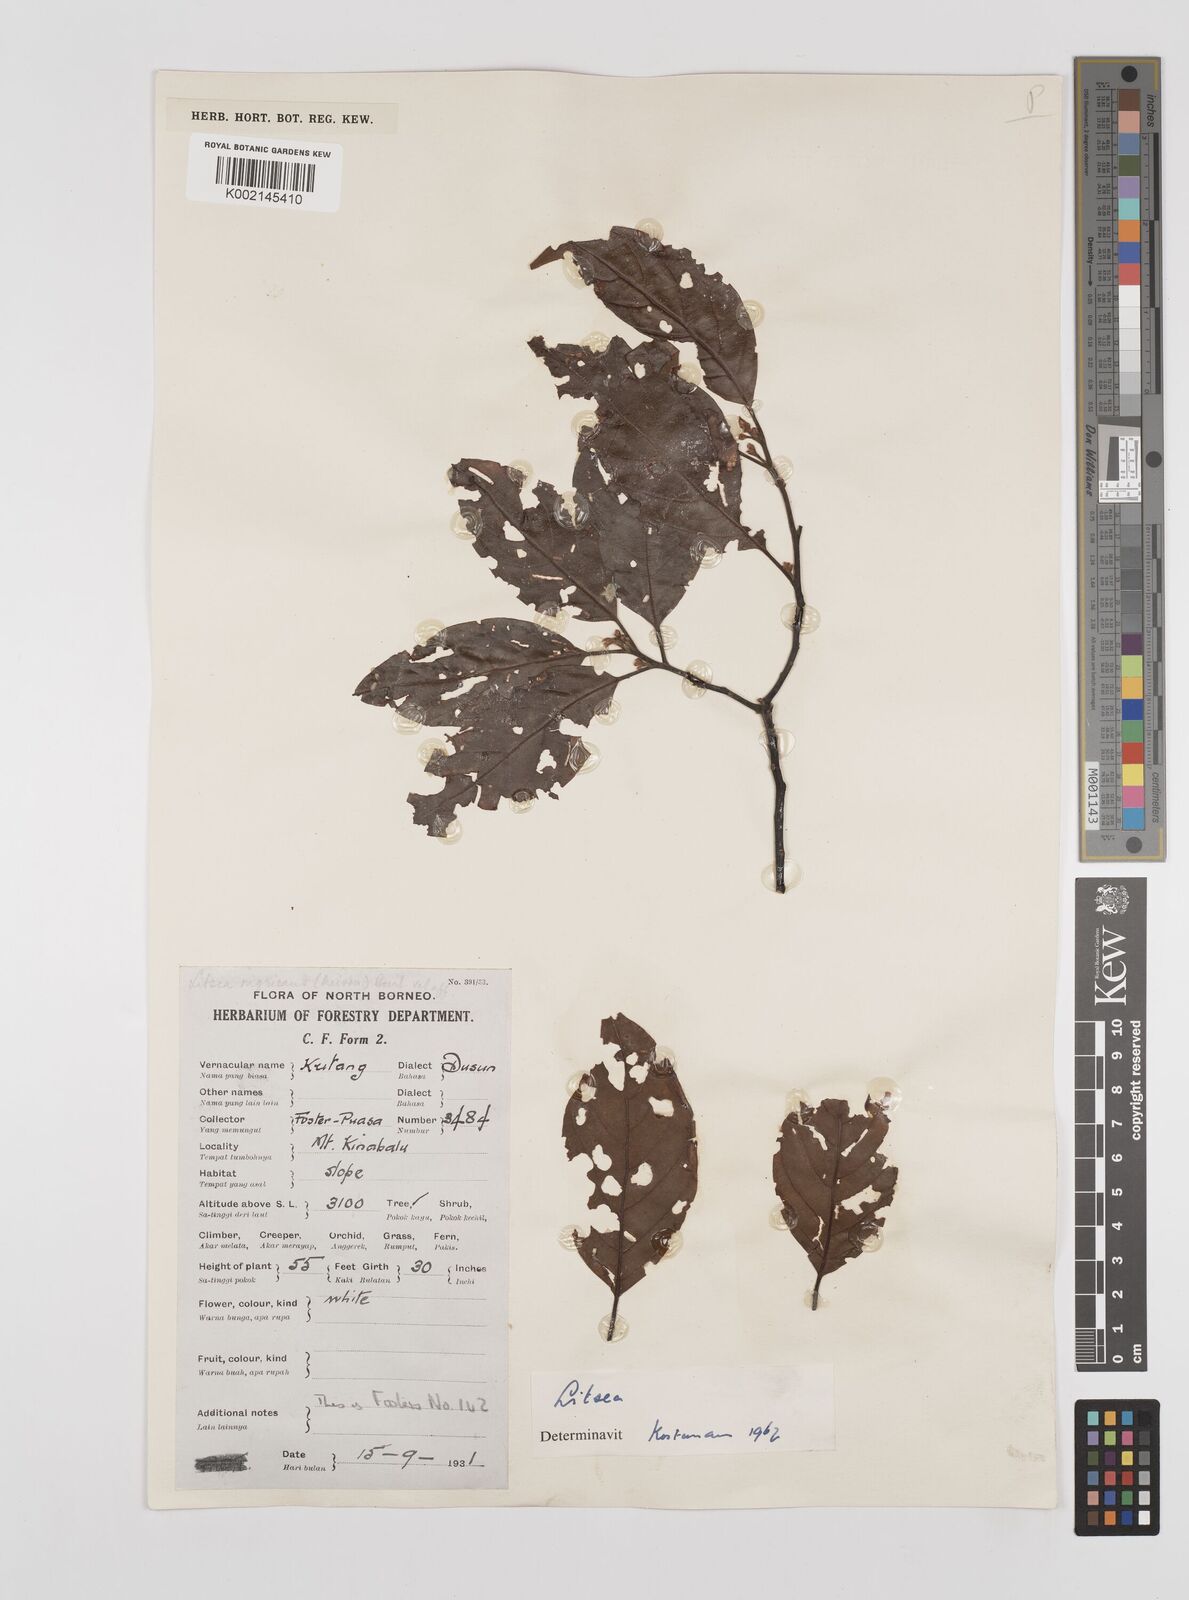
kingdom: Plantae
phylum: Tracheophyta
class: Magnoliopsida
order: Laurales
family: Lauraceae
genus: Litsea
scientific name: Litsea
